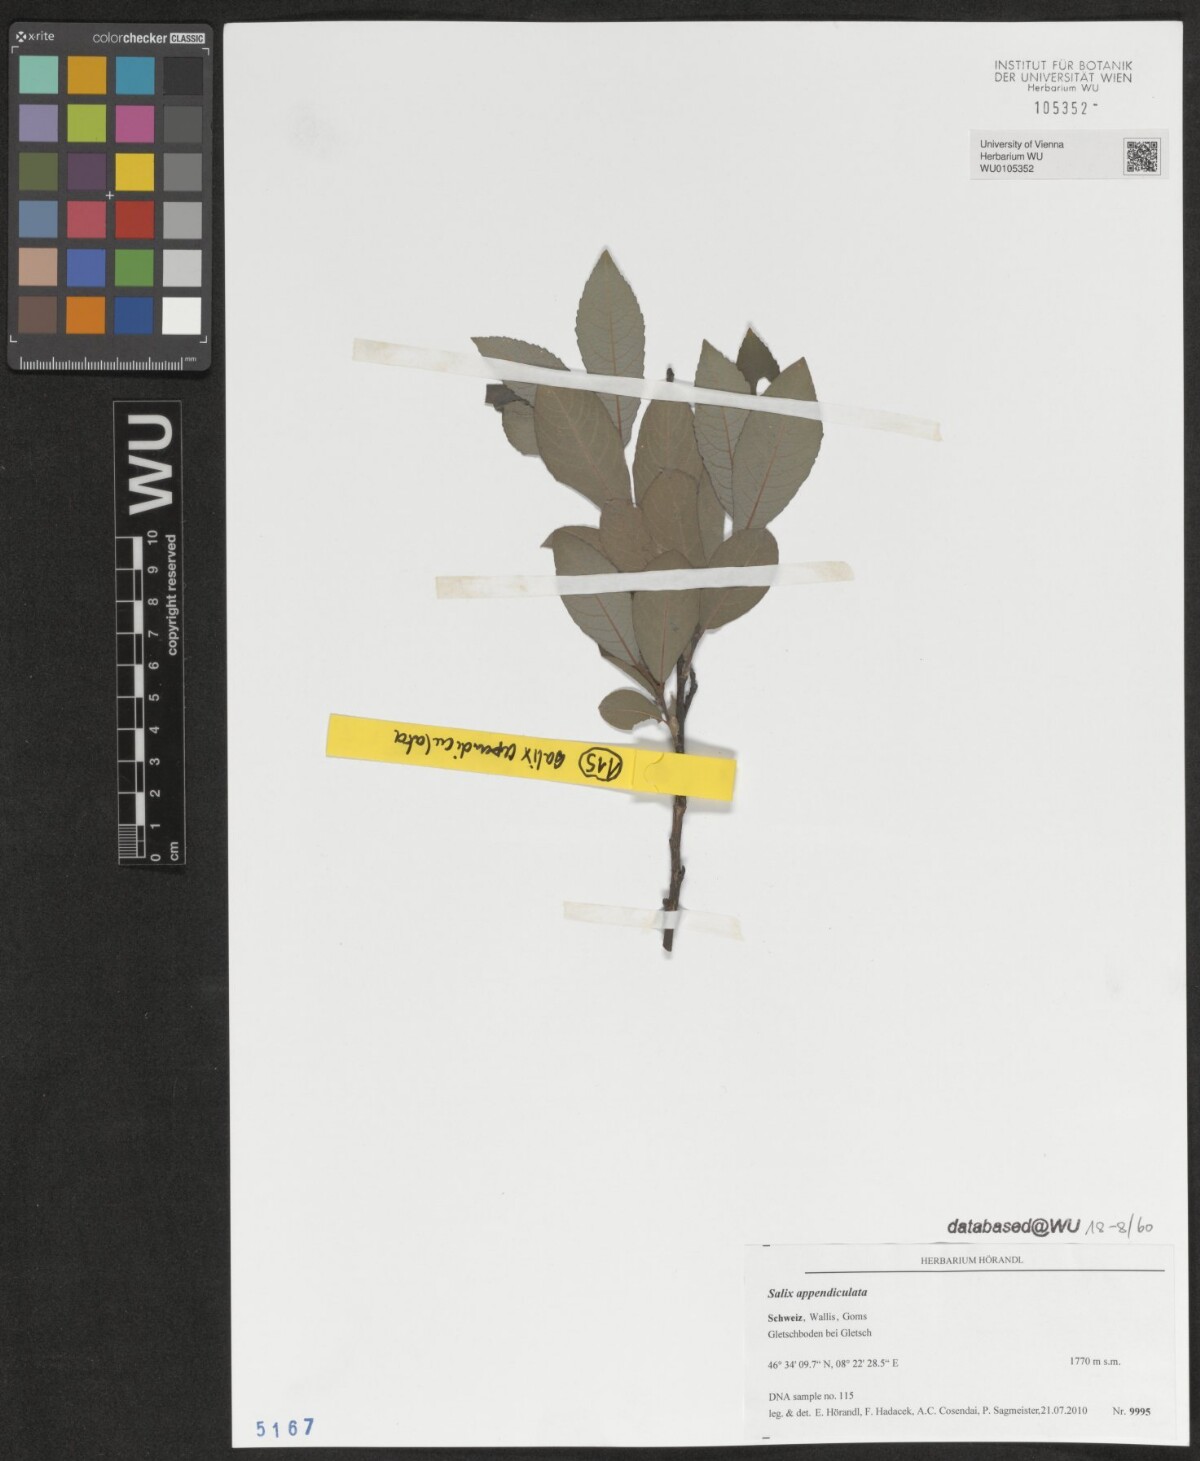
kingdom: Plantae
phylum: Tracheophyta
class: Magnoliopsida
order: Malpighiales
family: Salicaceae
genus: Salix
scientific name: Salix appendiculata
